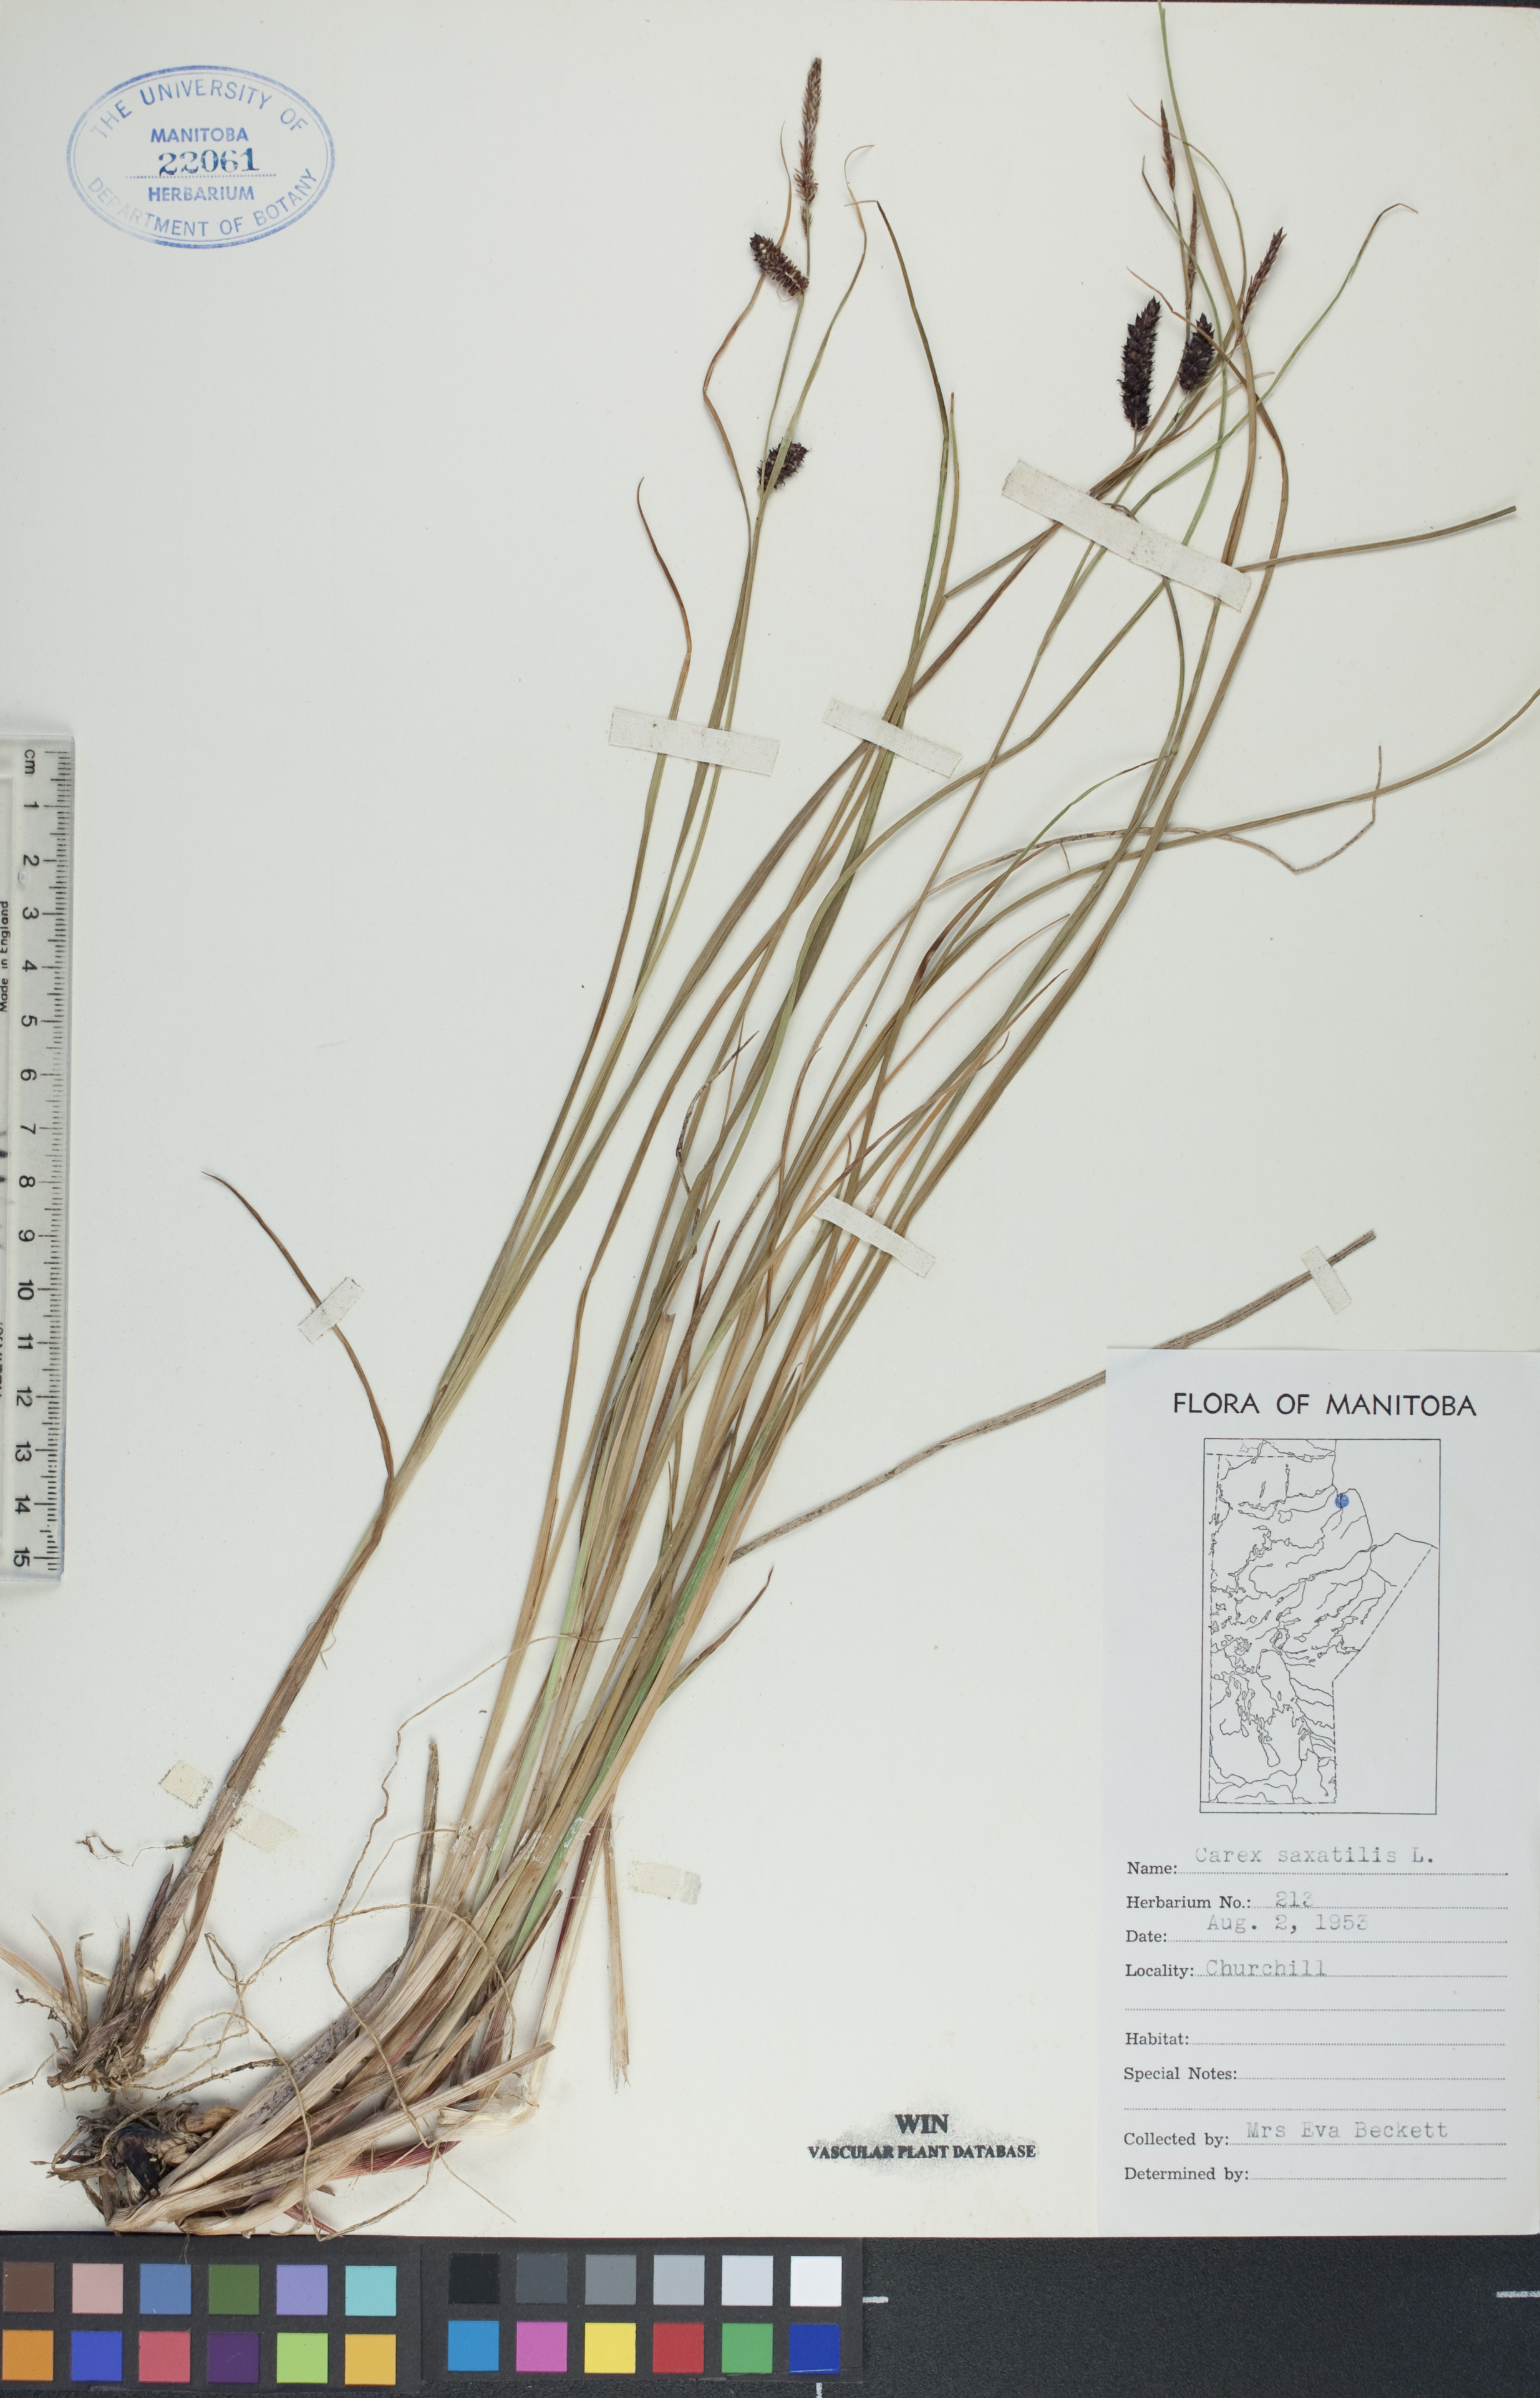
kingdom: Plantae
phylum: Tracheophyta
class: Liliopsida
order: Poales
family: Cyperaceae
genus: Carex
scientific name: Carex saxatilis
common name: Russet sedge
